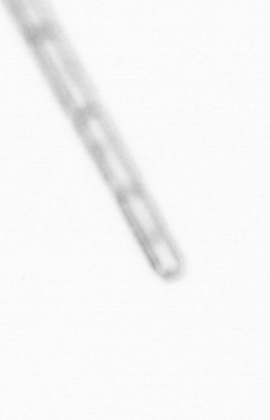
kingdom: Chromista
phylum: Ochrophyta
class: Bacillariophyceae
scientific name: Bacillariophyceae
